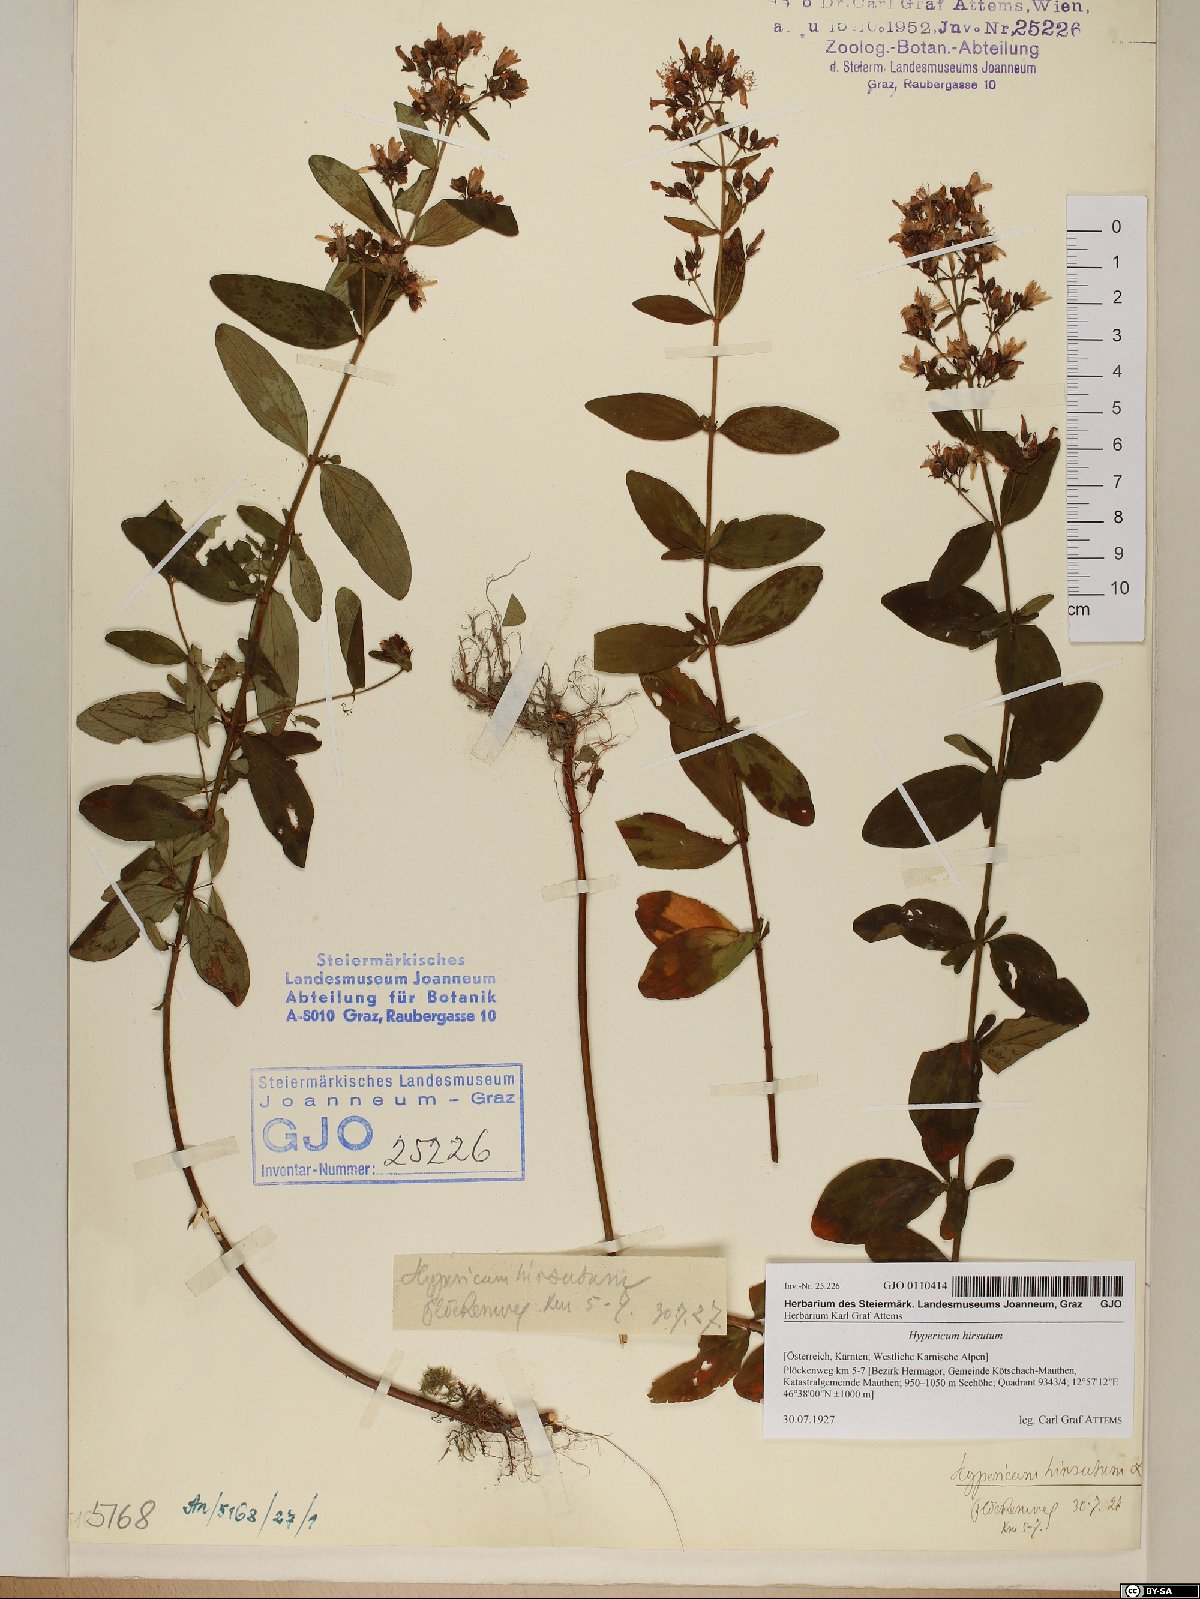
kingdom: Plantae
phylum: Tracheophyta
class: Magnoliopsida
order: Malpighiales
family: Hypericaceae
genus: Hypericum
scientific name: Hypericum hirsutum
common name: Hairy st. john's-wort
